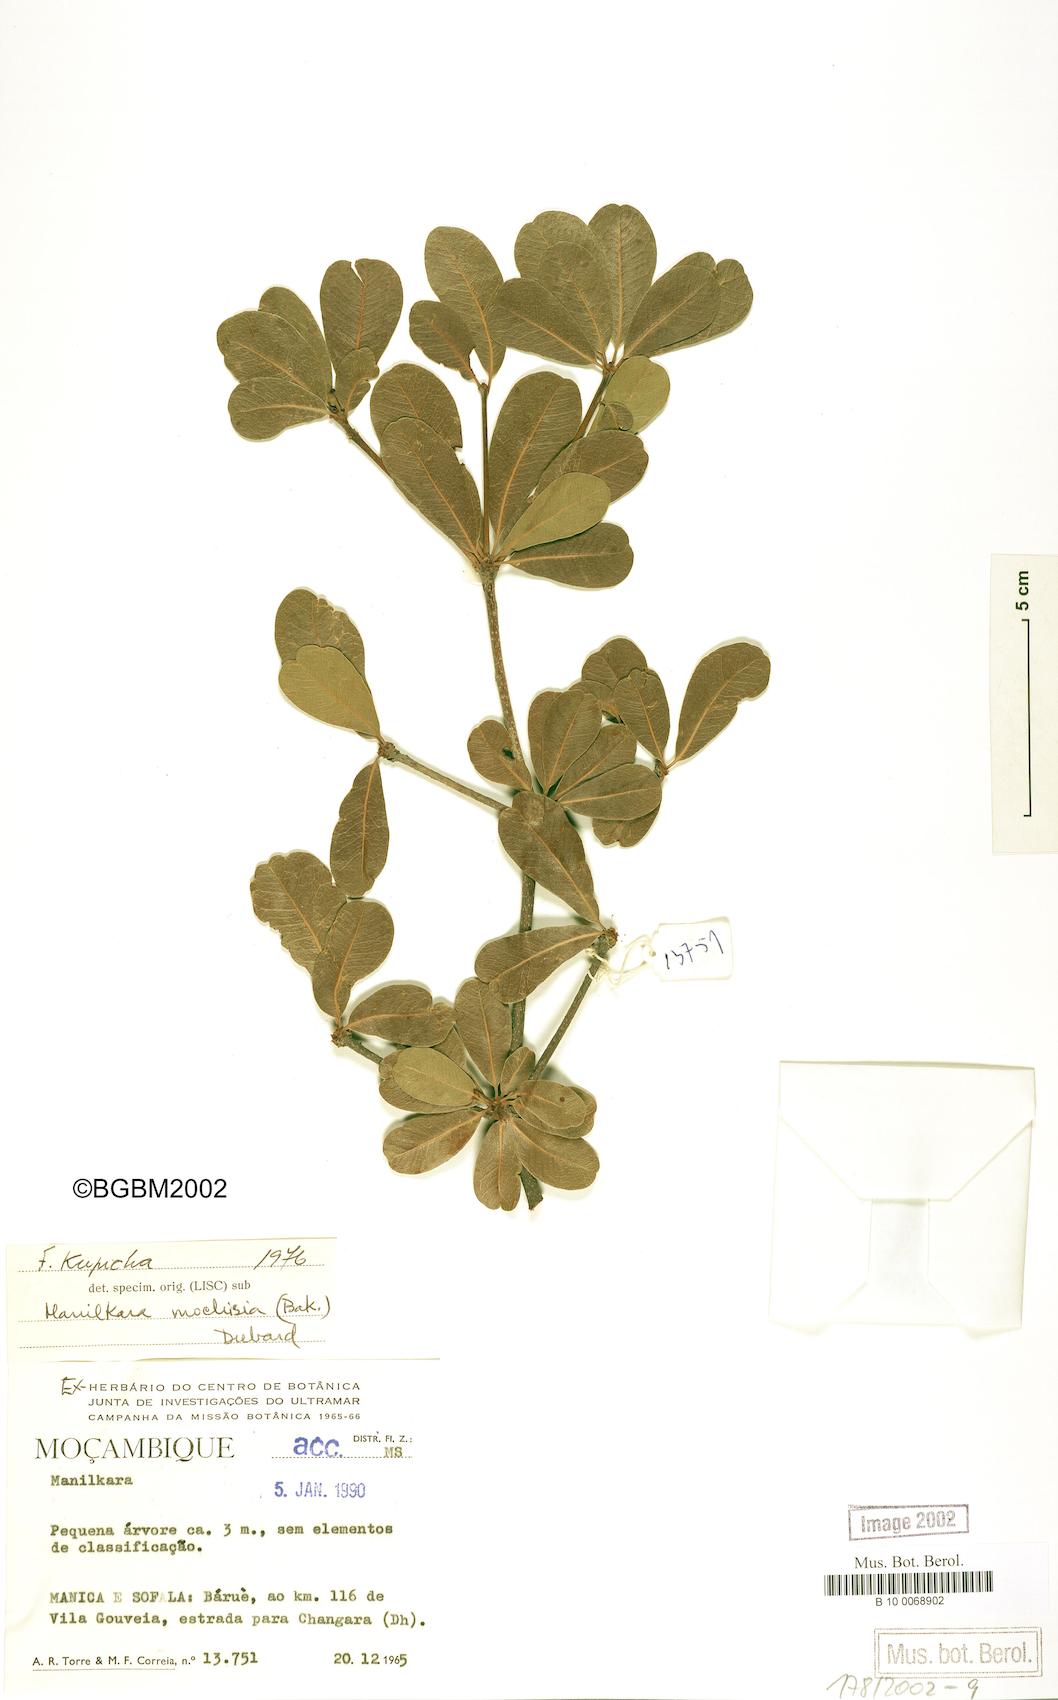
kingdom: Plantae
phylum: Tracheophyta
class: Magnoliopsida
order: Ericales
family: Sapotaceae
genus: Manilkara
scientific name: Manilkara mochisia
